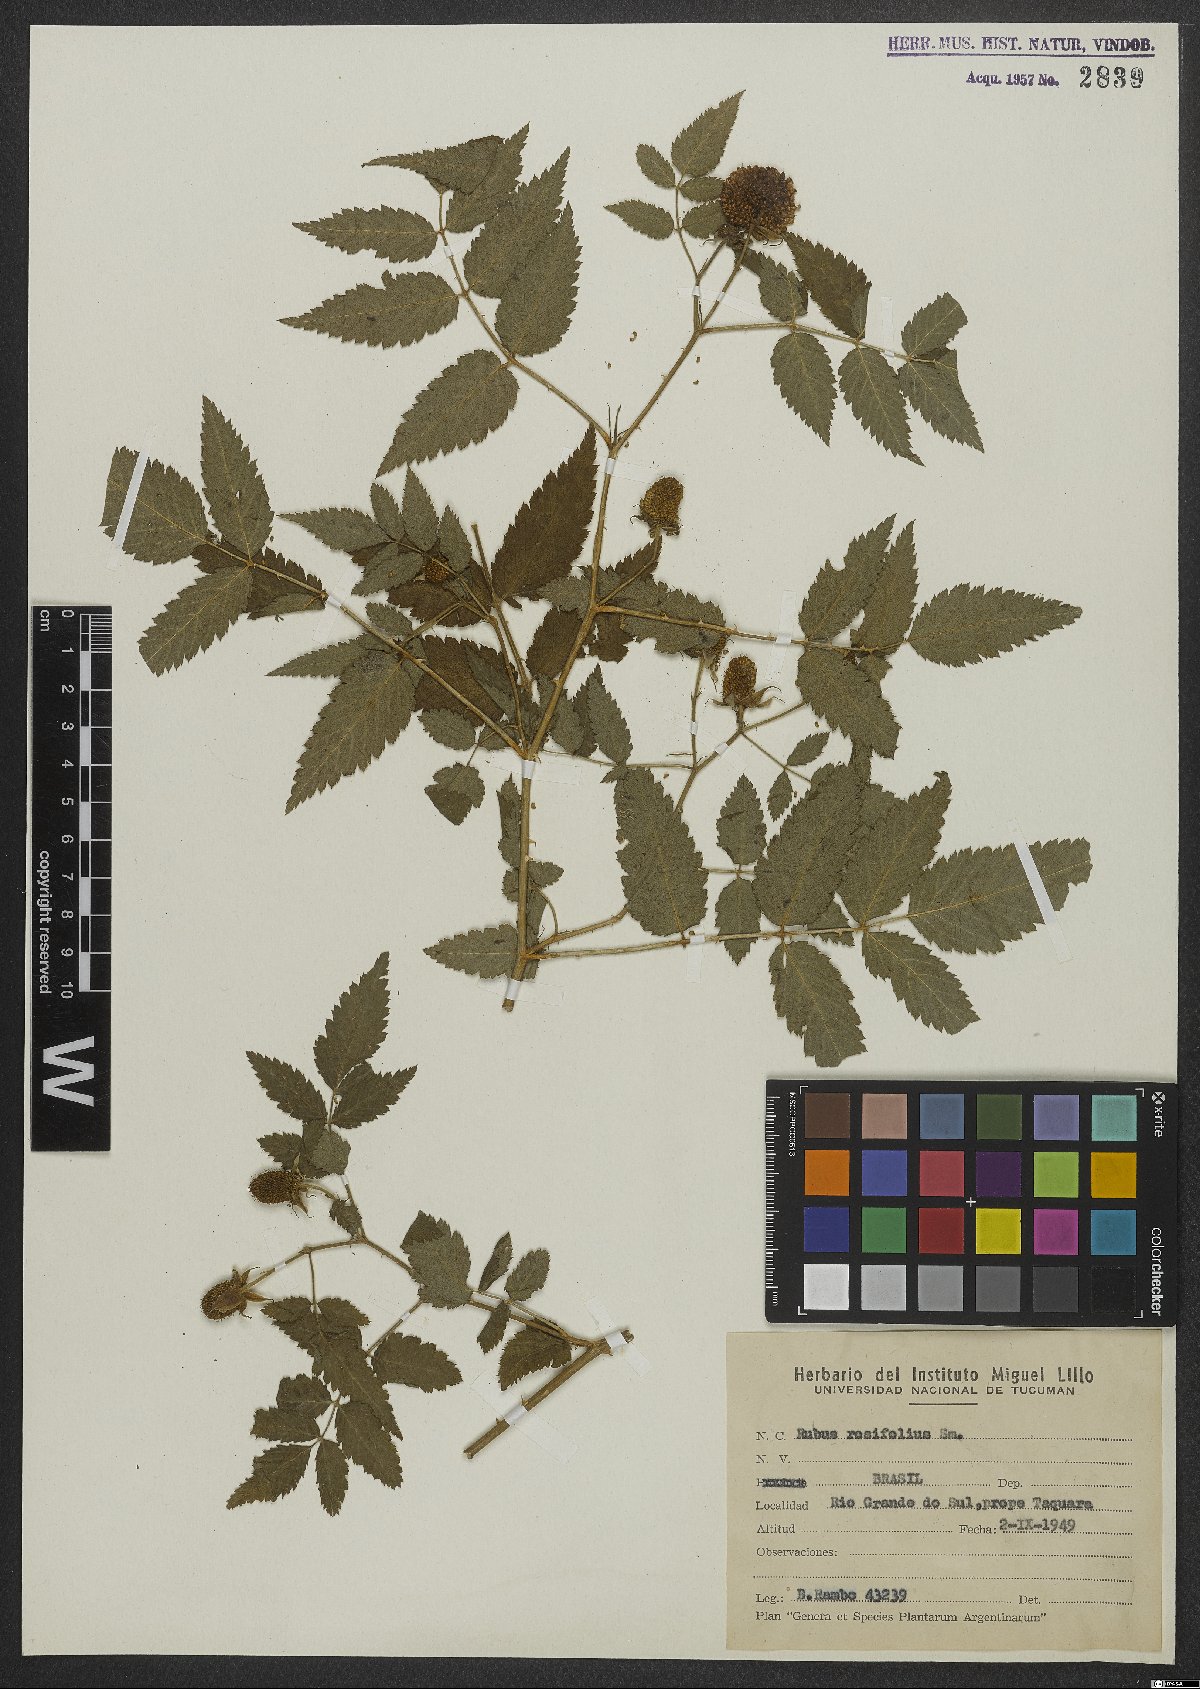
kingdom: Plantae
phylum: Tracheophyta
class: Magnoliopsida
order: Rosales
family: Rosaceae
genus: Prunus
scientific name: Prunus myrtifolia
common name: West indies cherry
